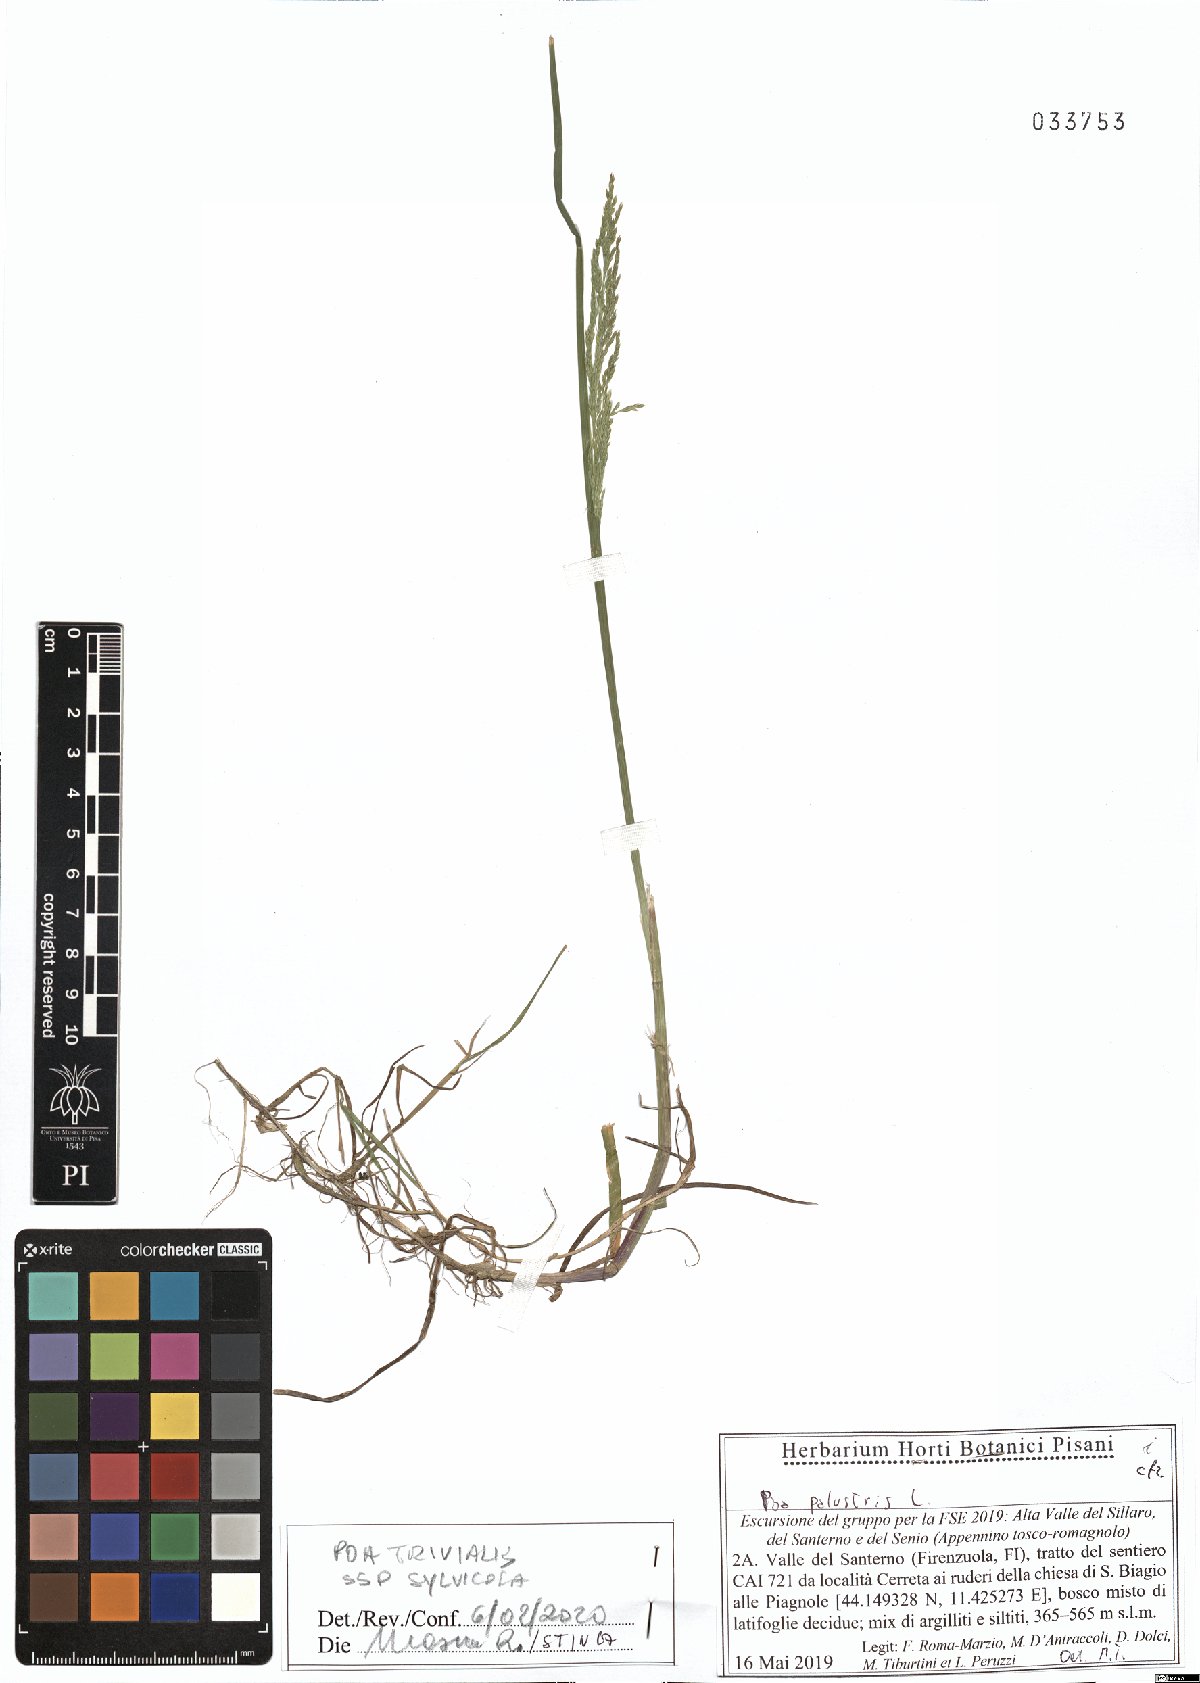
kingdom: Plantae
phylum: Tracheophyta
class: Liliopsida
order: Poales
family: Poaceae
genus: Poa
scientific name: Poa trivialis
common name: Rough bluegrass
